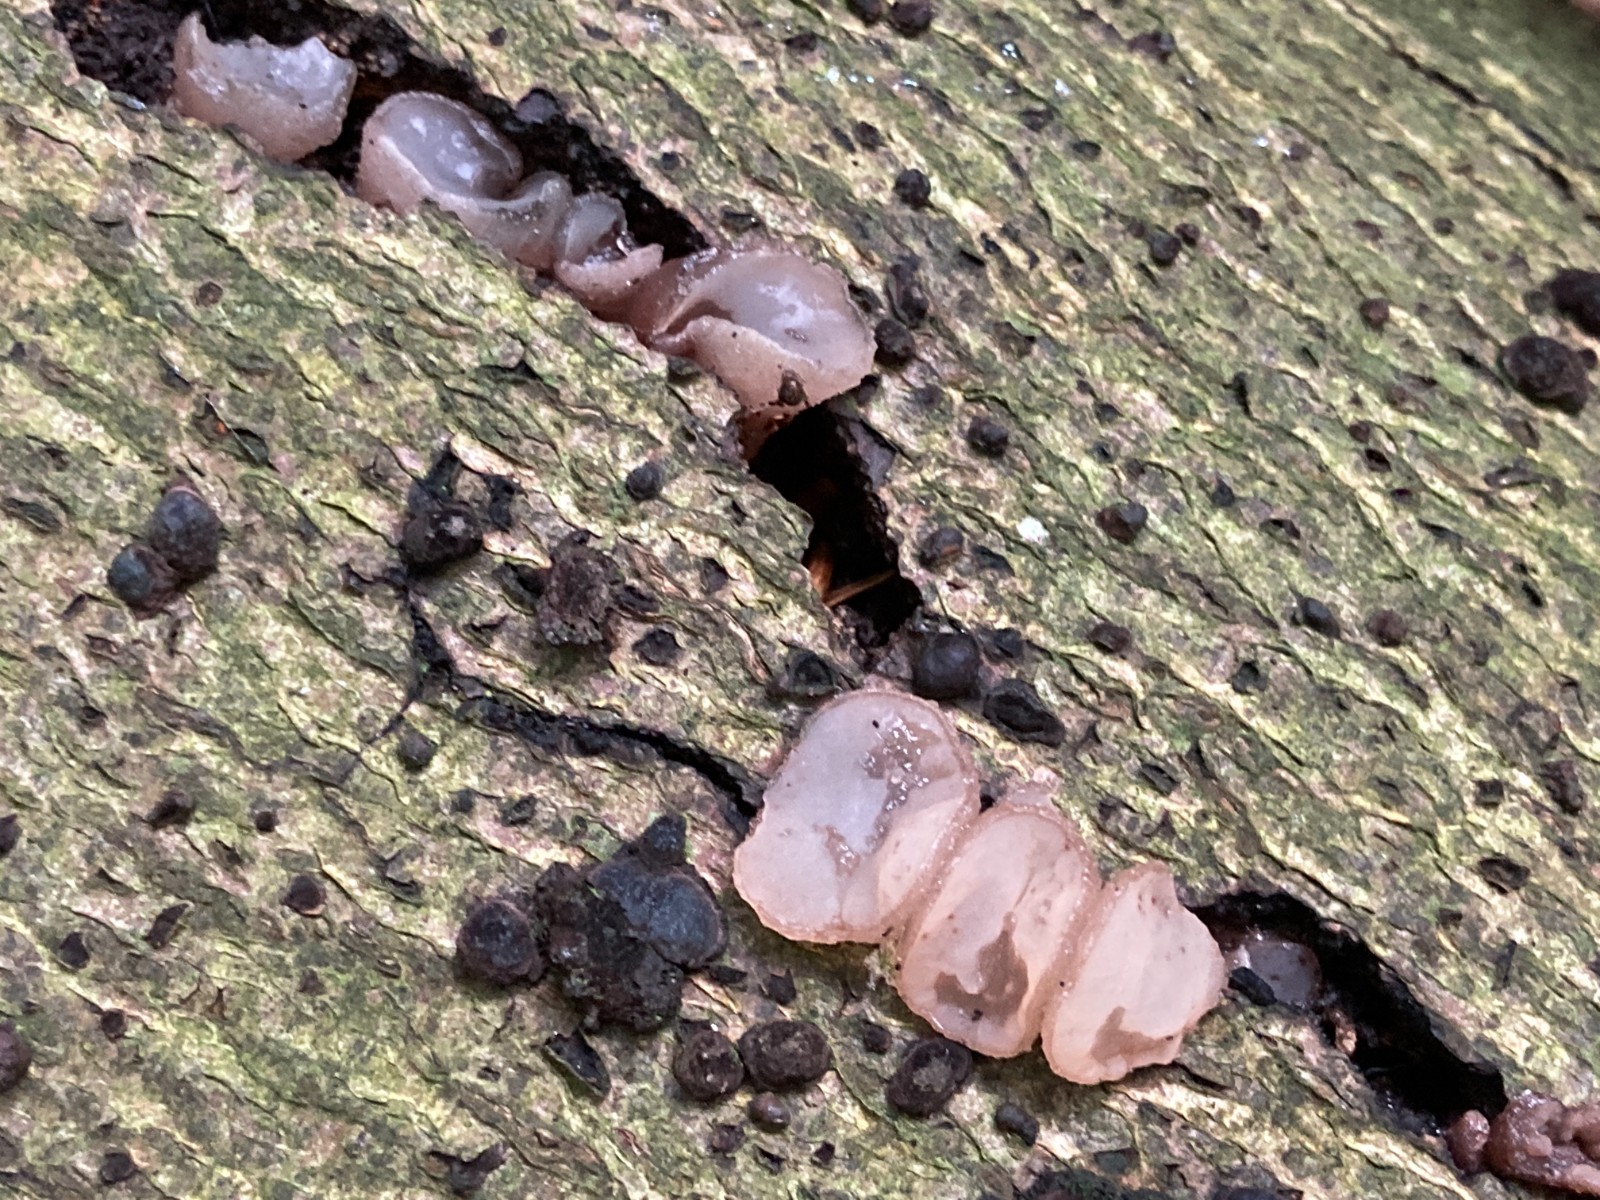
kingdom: Fungi
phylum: Ascomycota
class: Leotiomycetes
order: Helotiales
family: Gelatinodiscaceae
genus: Neobulgaria
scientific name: Neobulgaria pura
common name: bleg bævreskive
